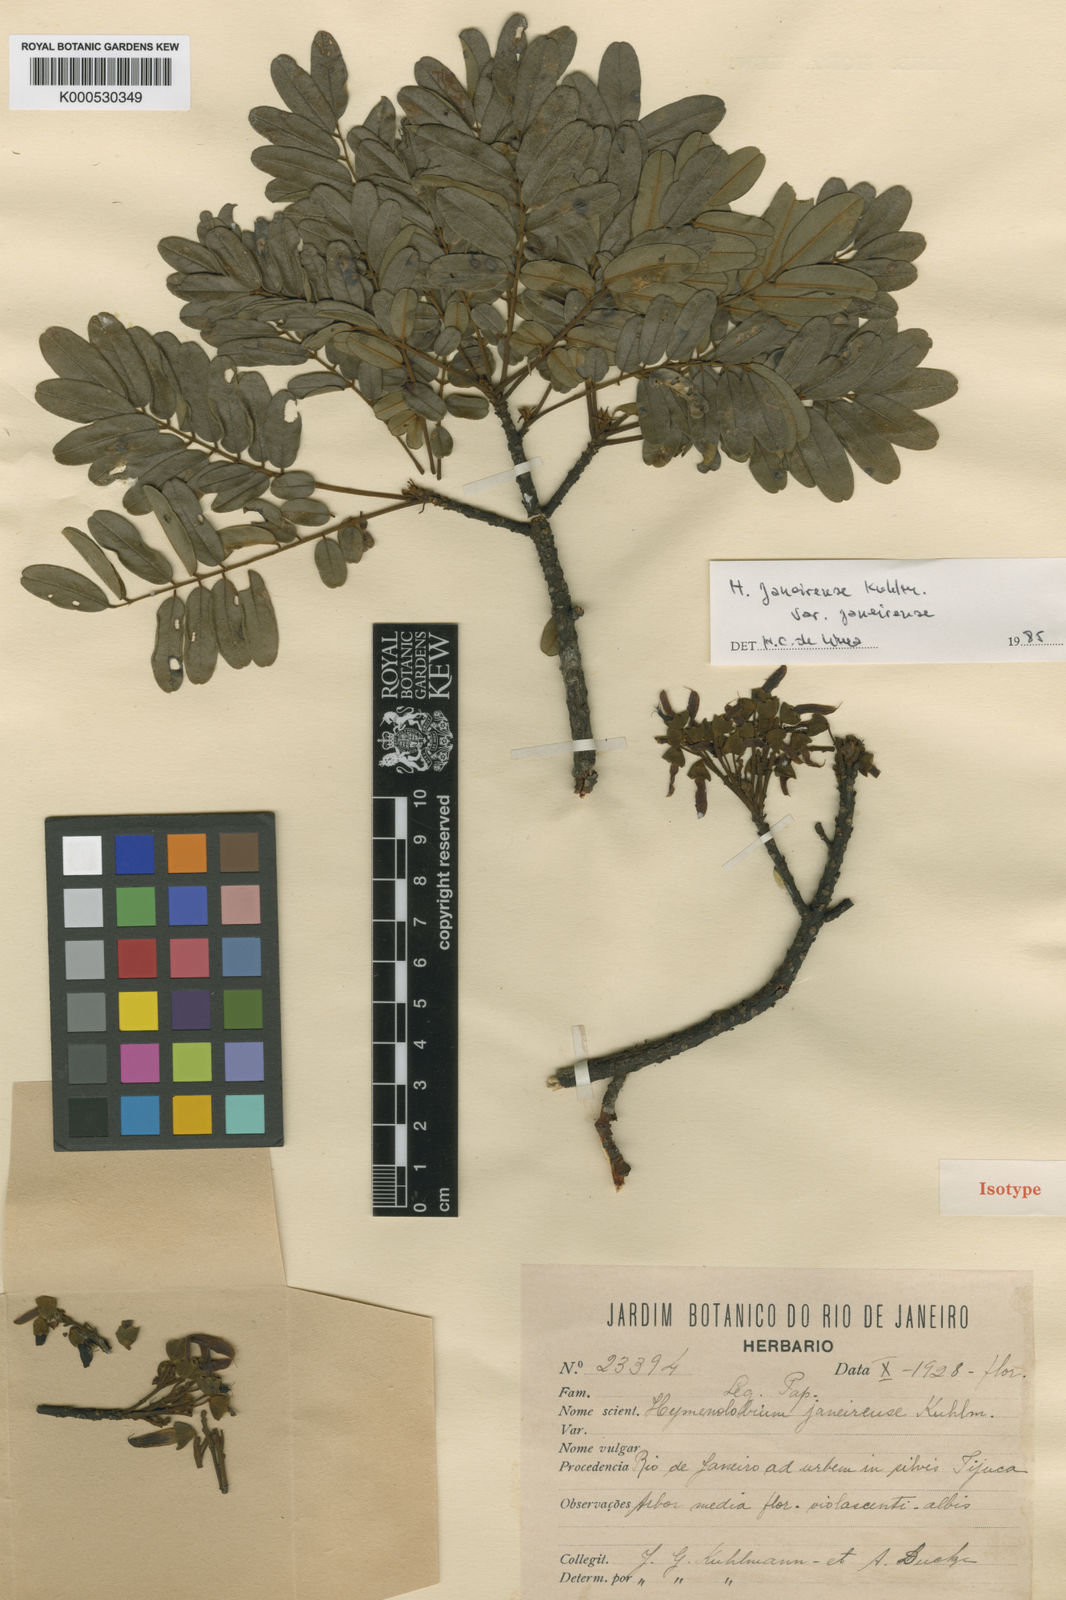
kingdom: Plantae
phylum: Tracheophyta
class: Magnoliopsida
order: Fabales
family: Fabaceae
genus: Hymenolobium
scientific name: Hymenolobium janeirense
